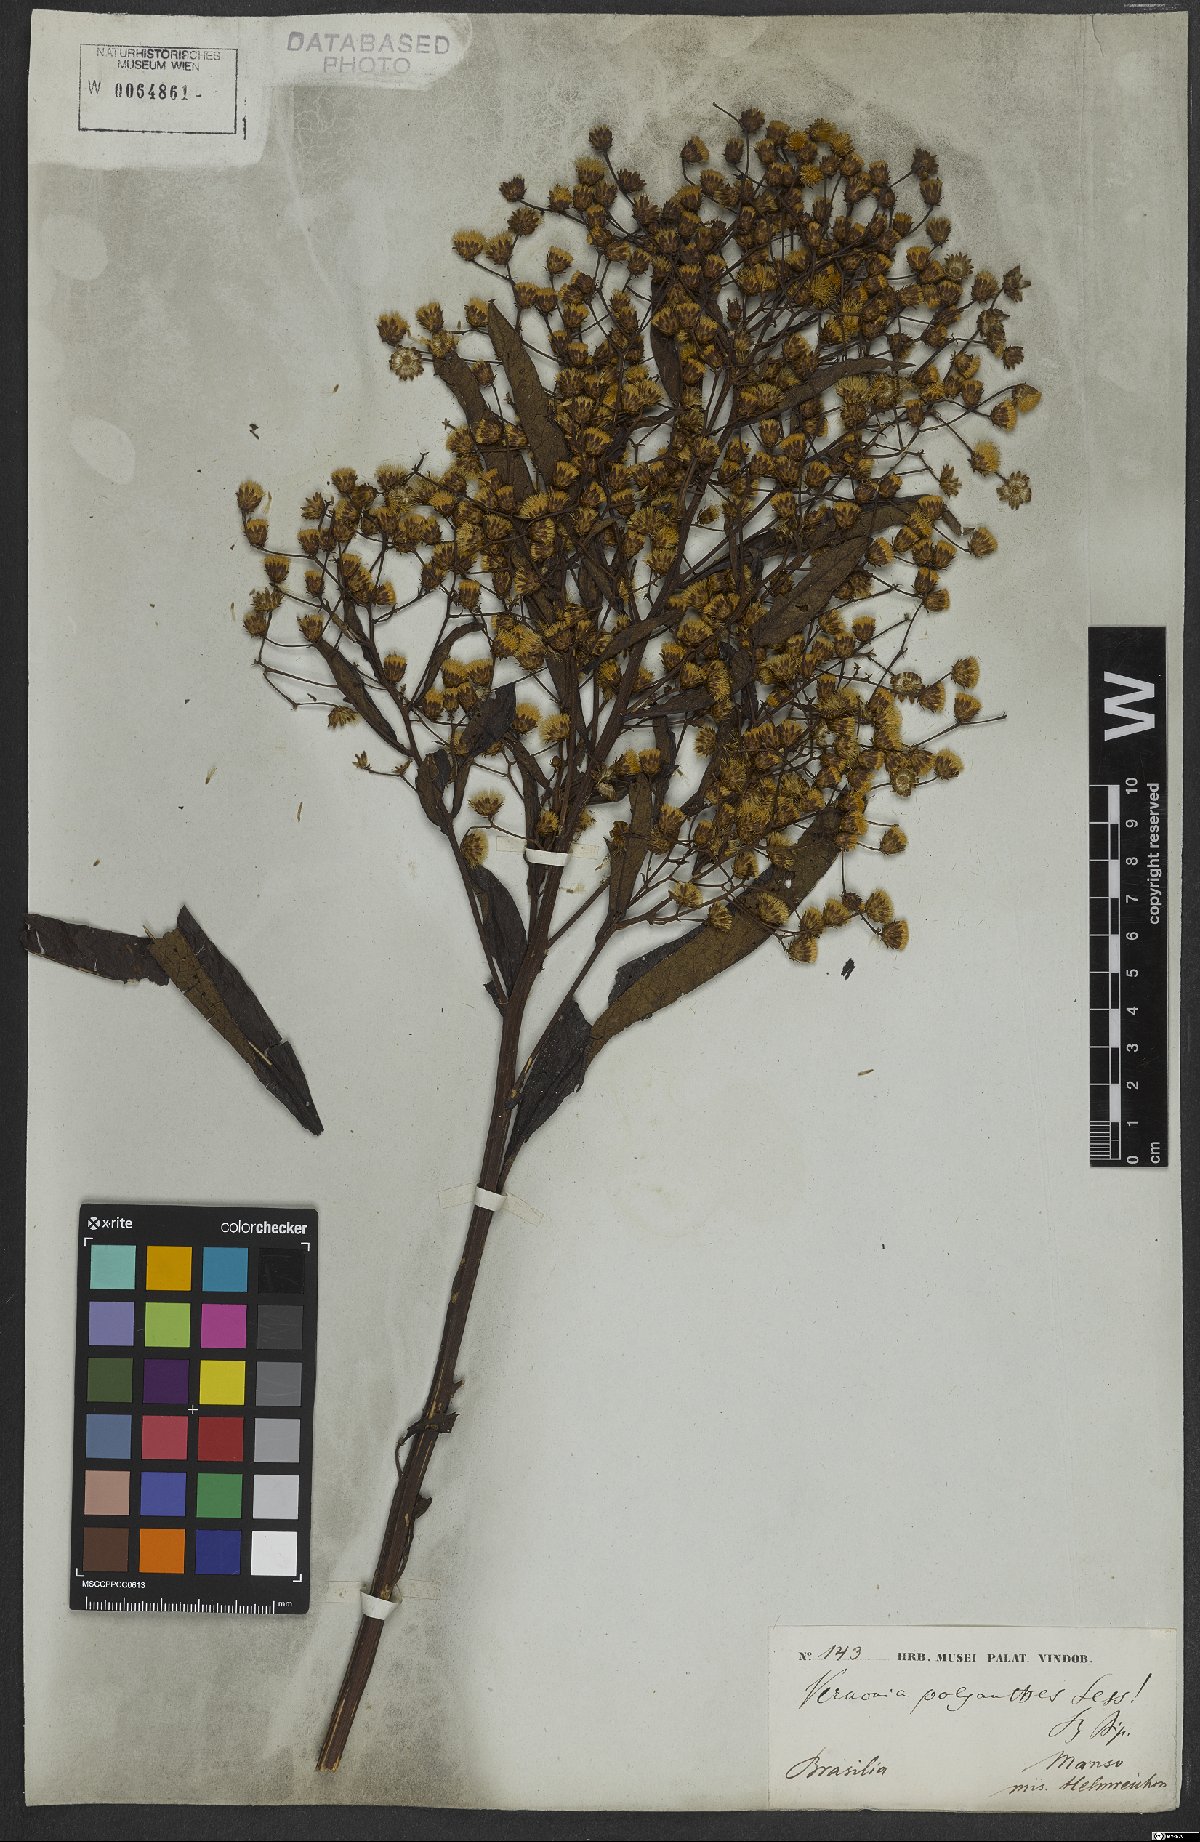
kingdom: Plantae
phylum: Tracheophyta
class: Magnoliopsida
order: Asterales
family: Asteraceae
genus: Vernonanthura
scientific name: Vernonanthura polyanthes
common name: Tree aster
